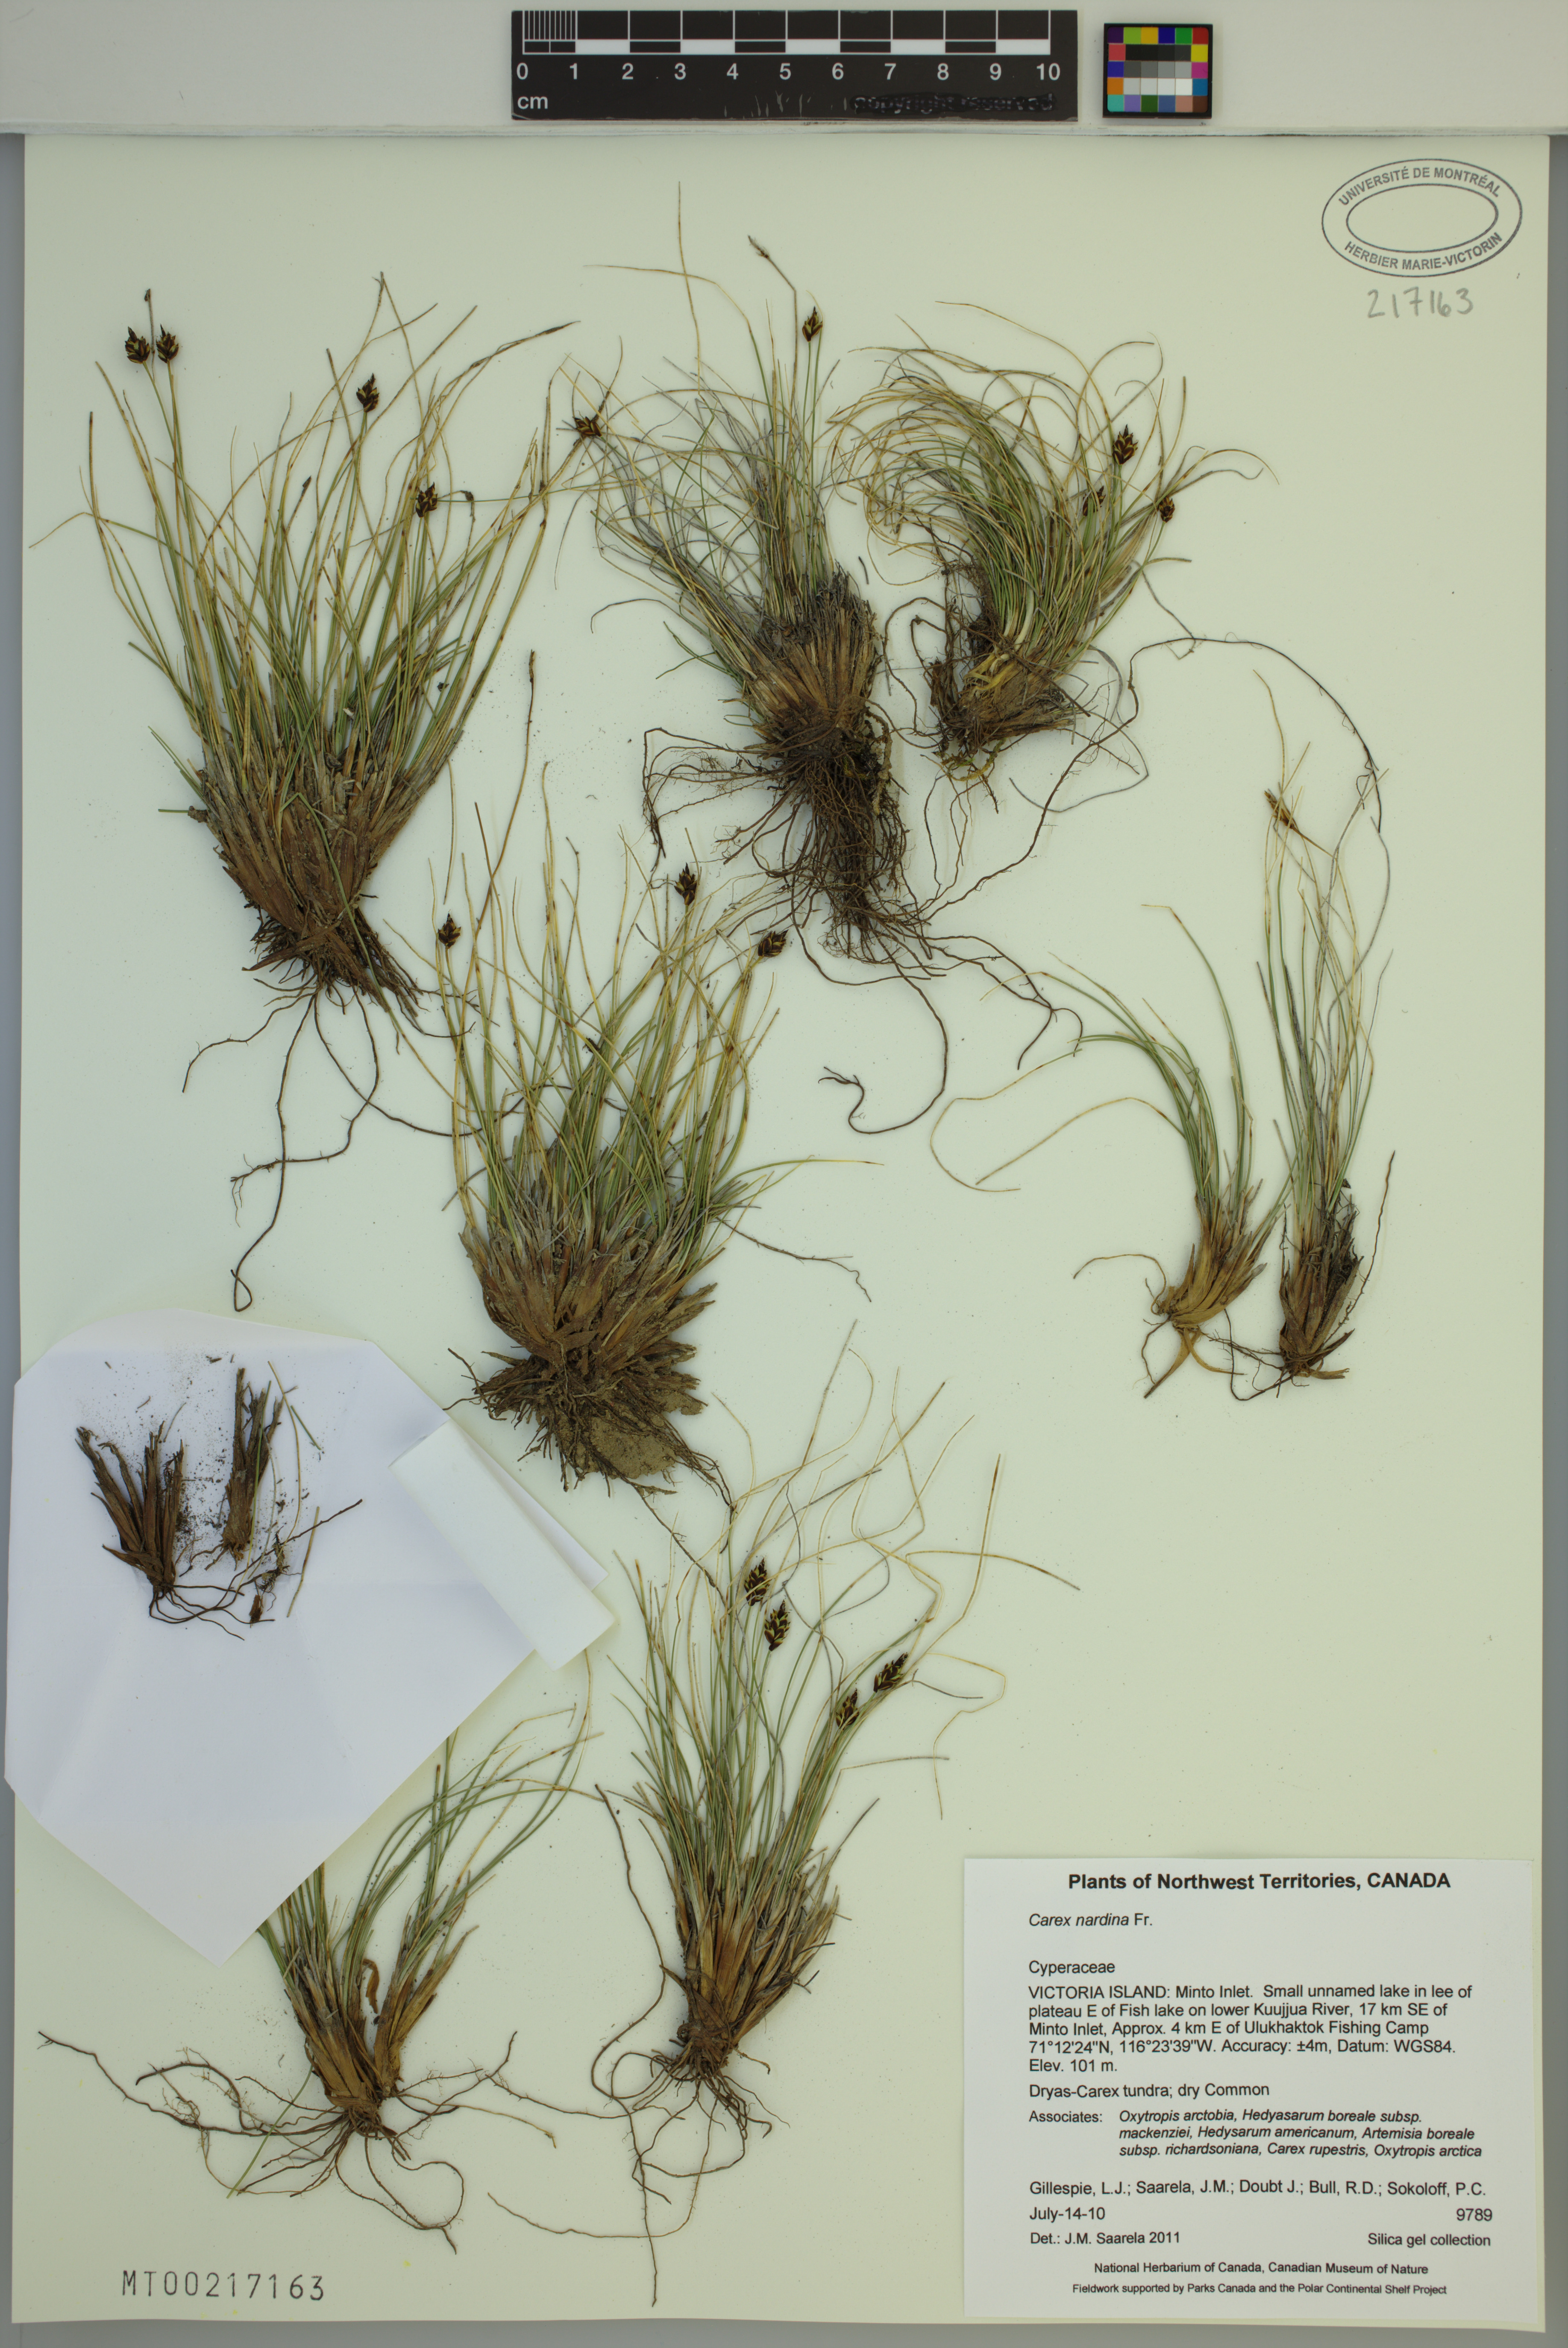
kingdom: Plantae
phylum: Tracheophyta
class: Liliopsida
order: Poales
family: Cyperaceae
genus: Carex
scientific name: Carex nardina
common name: Nard sedge
